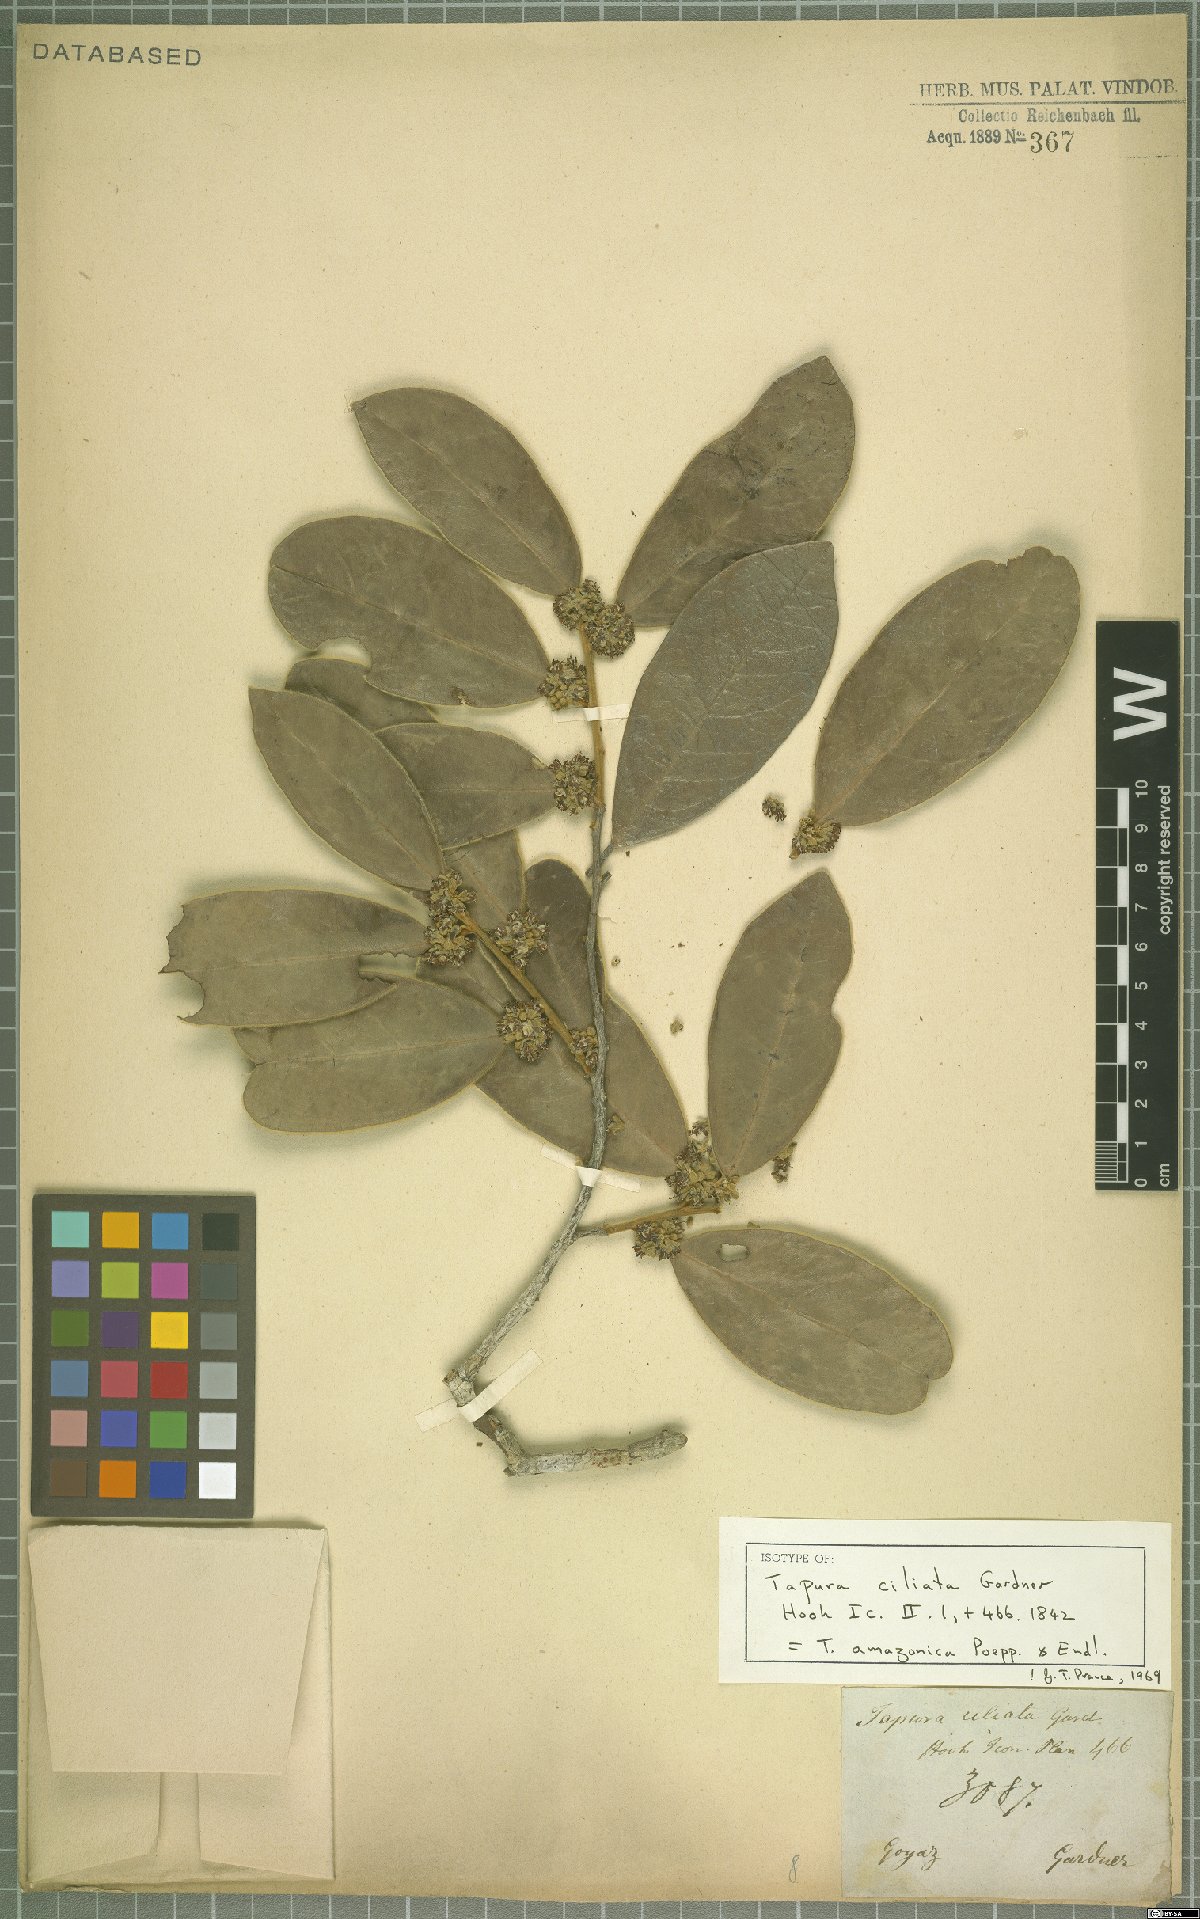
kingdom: Plantae
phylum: Tracheophyta
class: Magnoliopsida
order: Malpighiales
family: Dichapetalaceae
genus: Tapura
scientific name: Tapura amazonica
